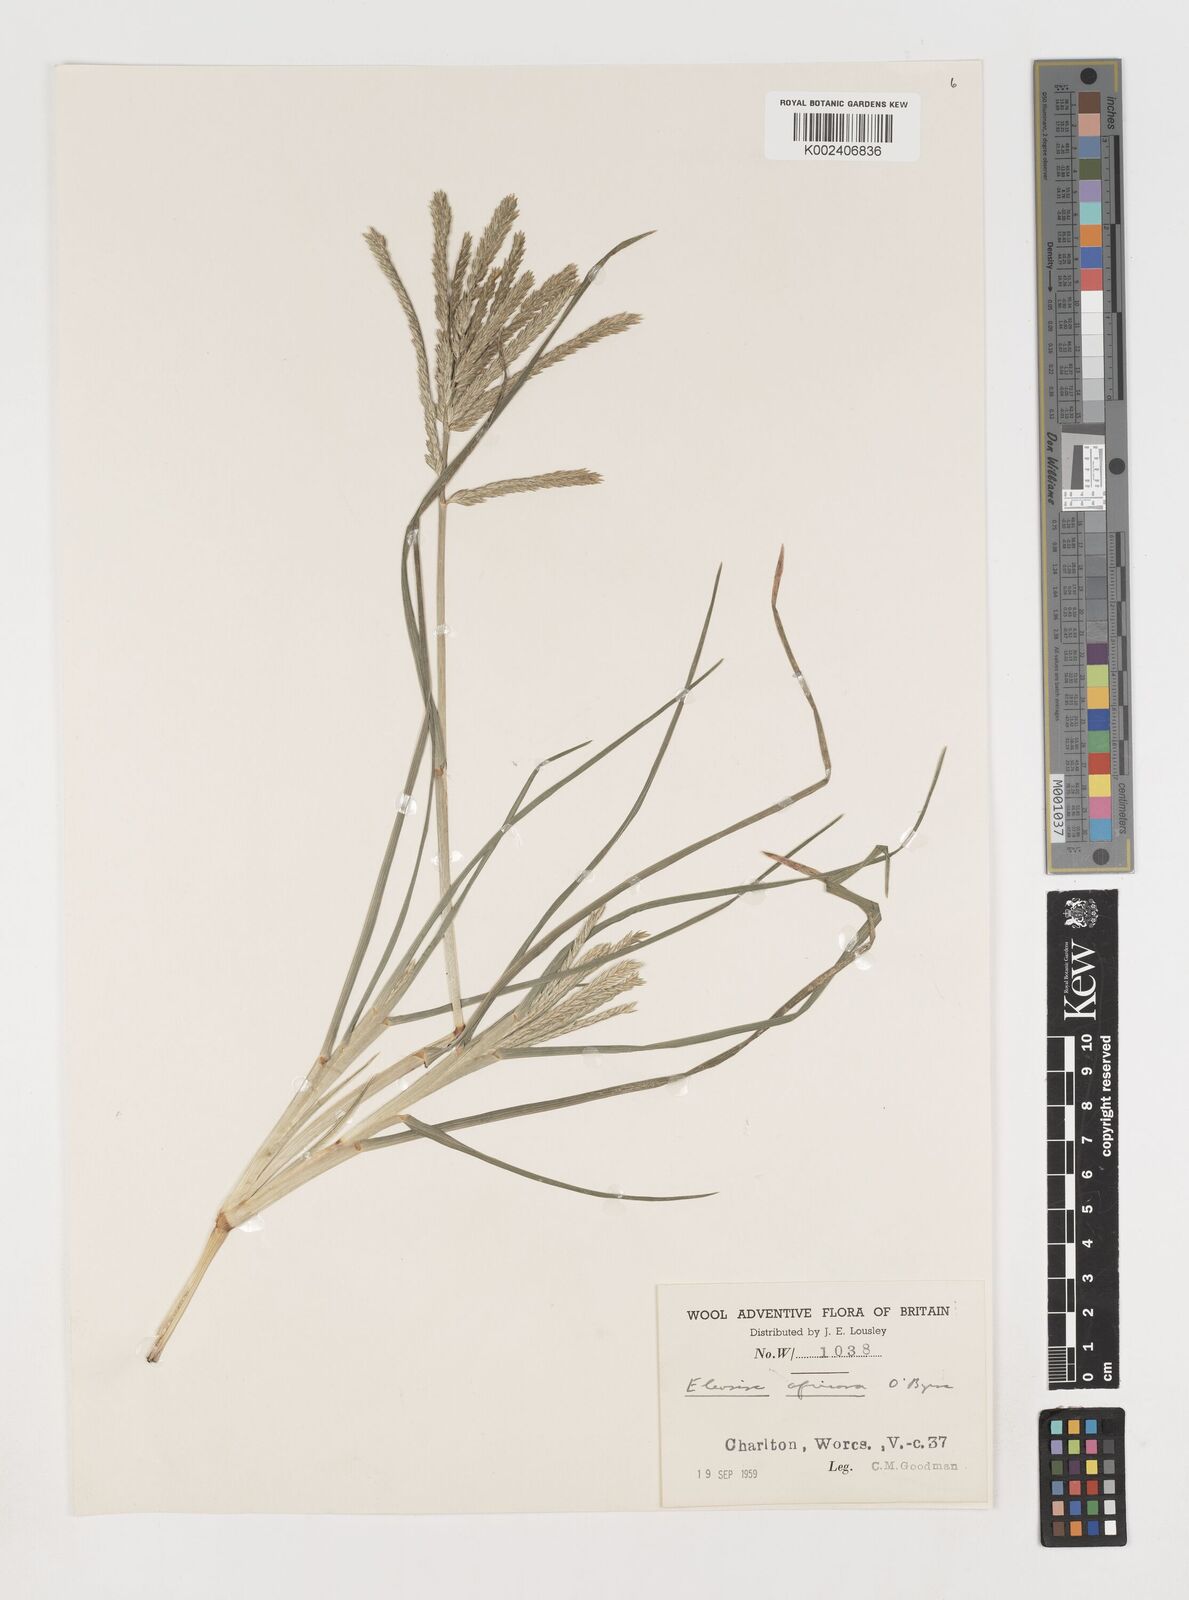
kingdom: Plantae
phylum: Tracheophyta
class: Liliopsida
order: Poales
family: Poaceae
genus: Eleusine
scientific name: Eleusine africana
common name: Wild african finger millet
